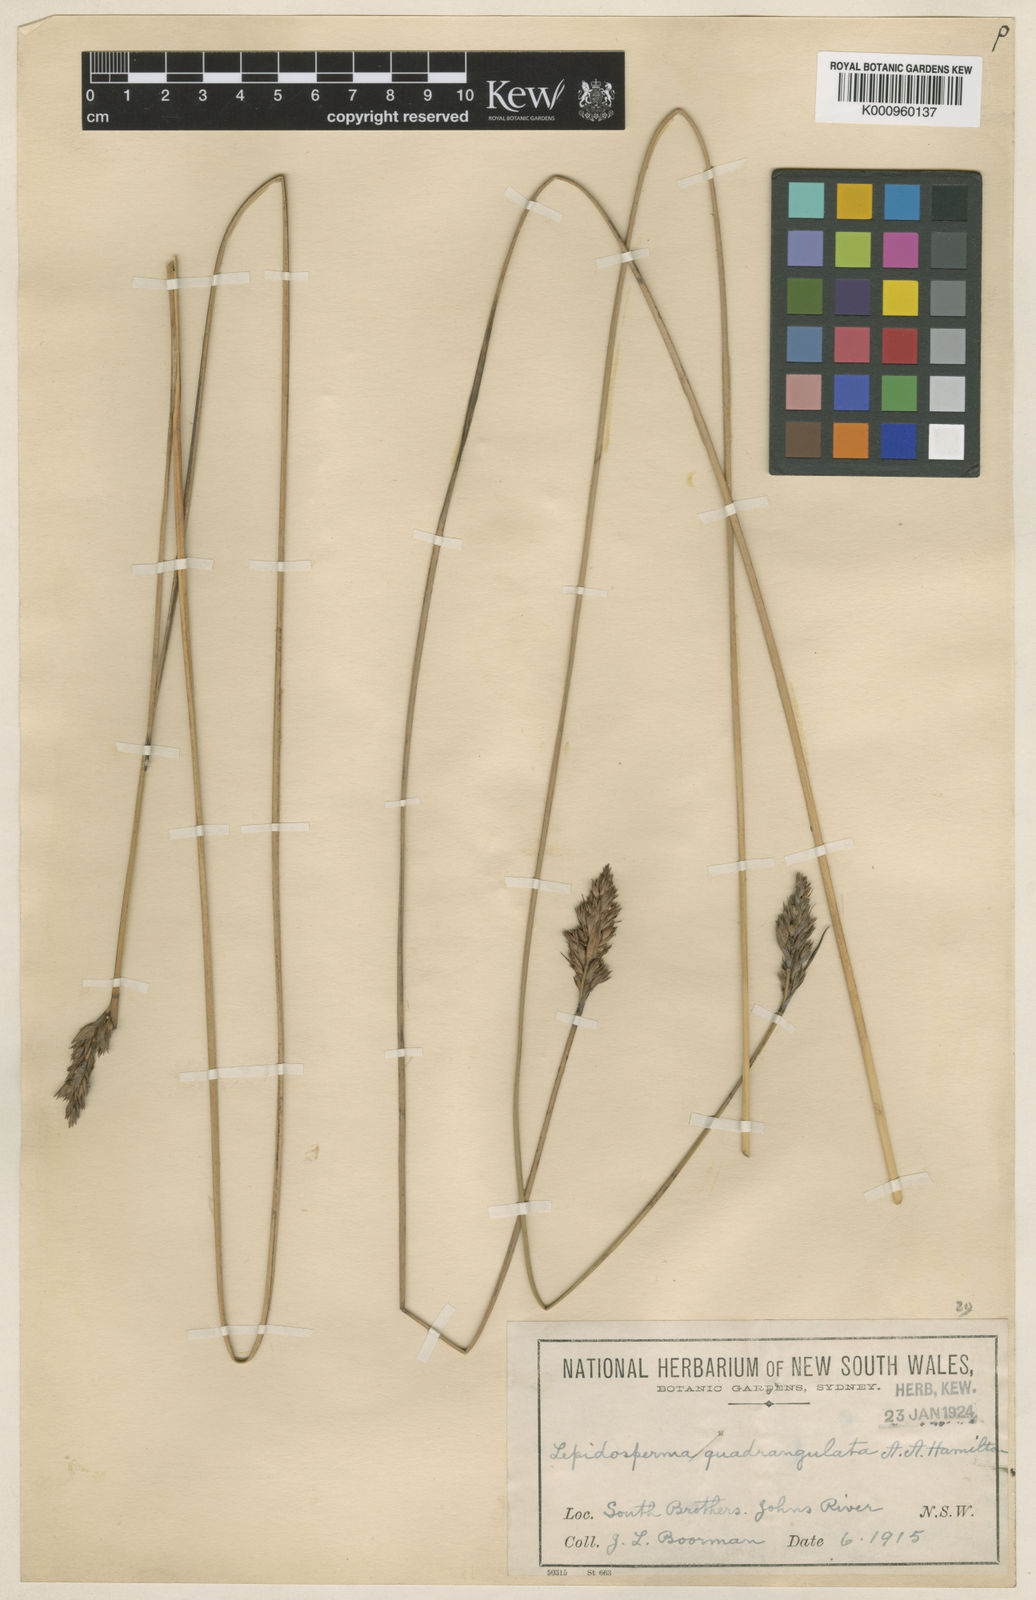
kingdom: Plantae
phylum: Tracheophyta
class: Liliopsida
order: Poales
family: Cyperaceae
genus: Lepidosperma
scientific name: Lepidosperma
